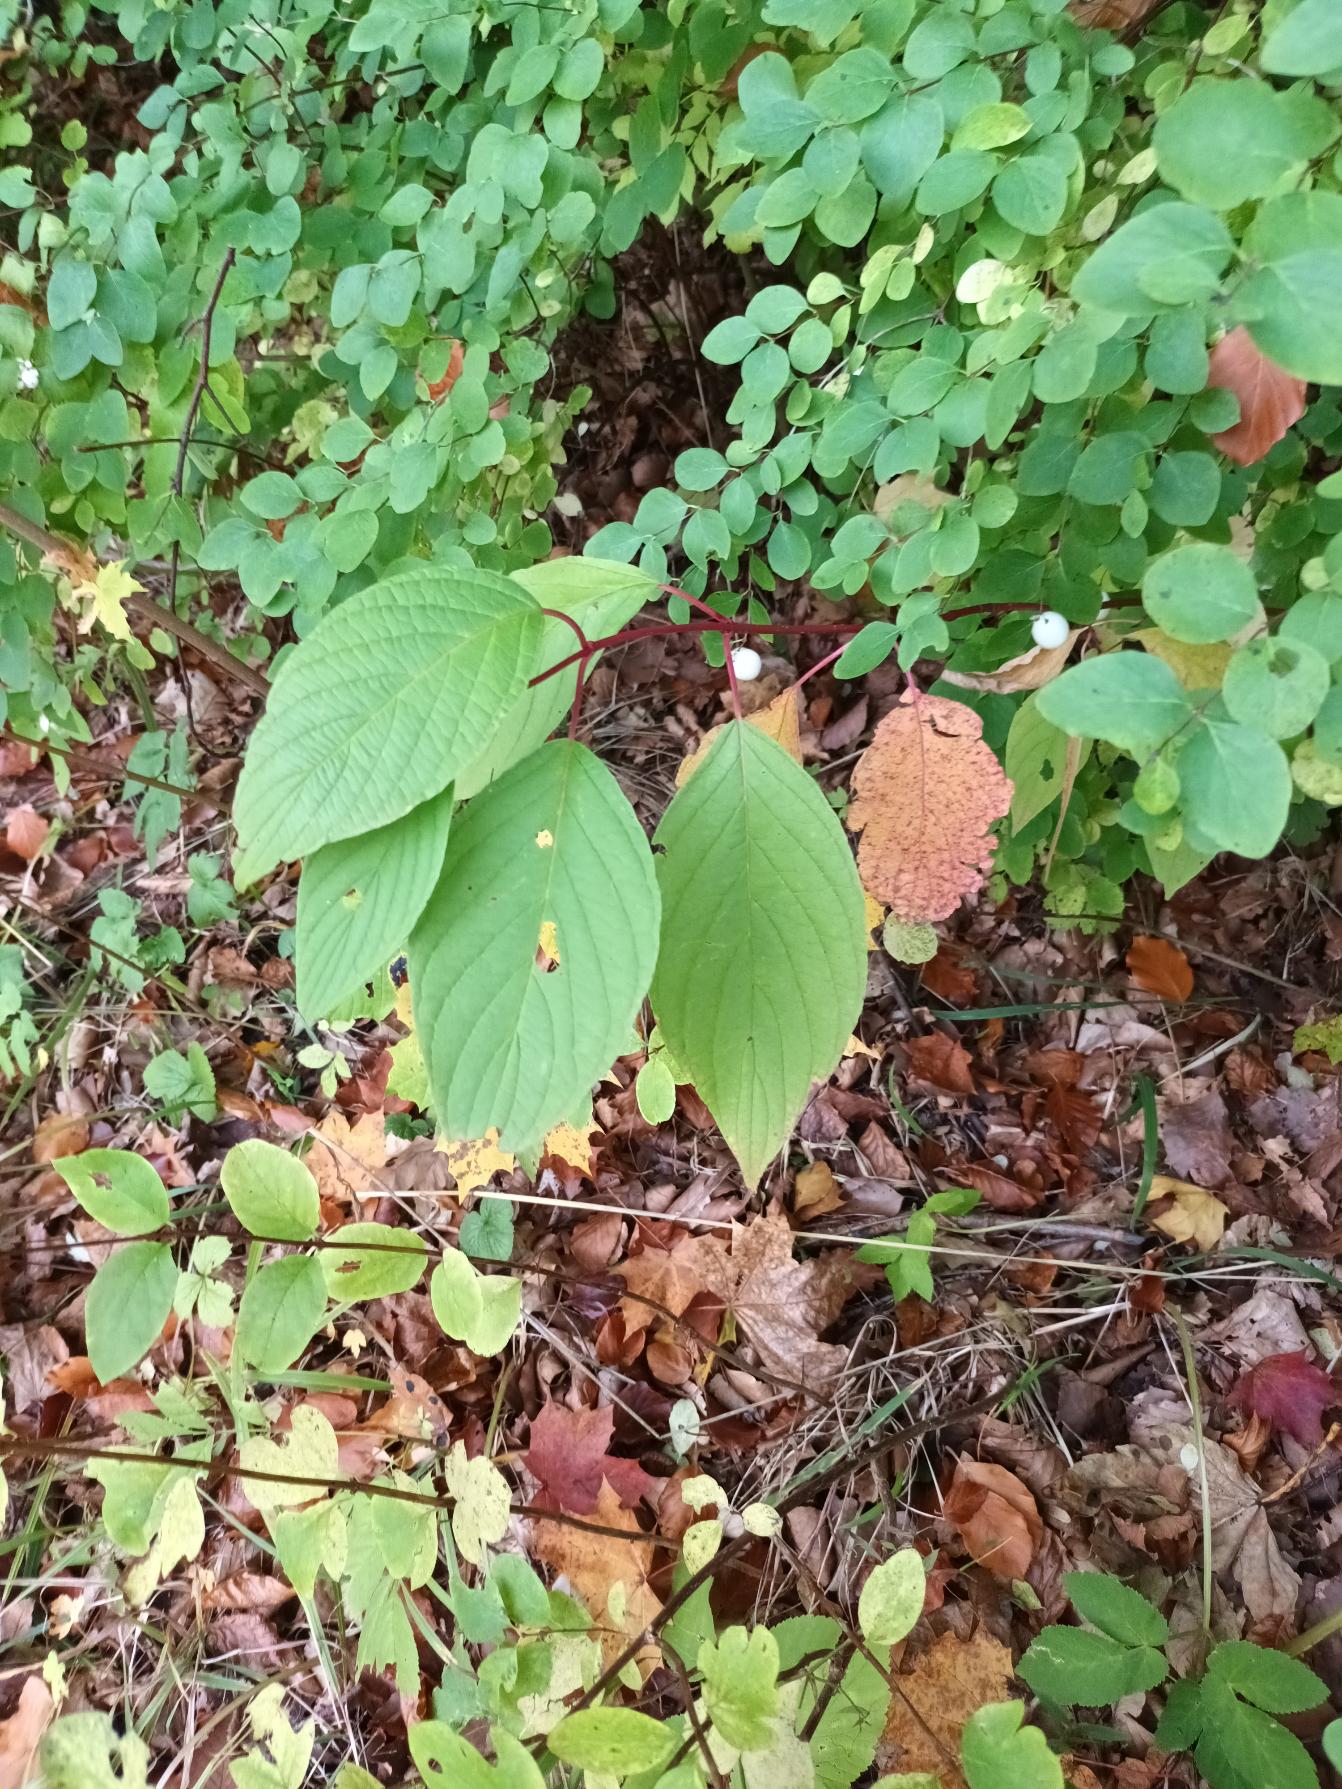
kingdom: Plantae
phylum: Tracheophyta
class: Magnoliopsida
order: Cornales
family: Cornaceae
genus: Cornus
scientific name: Cornus sericea
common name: Krybende kornel
